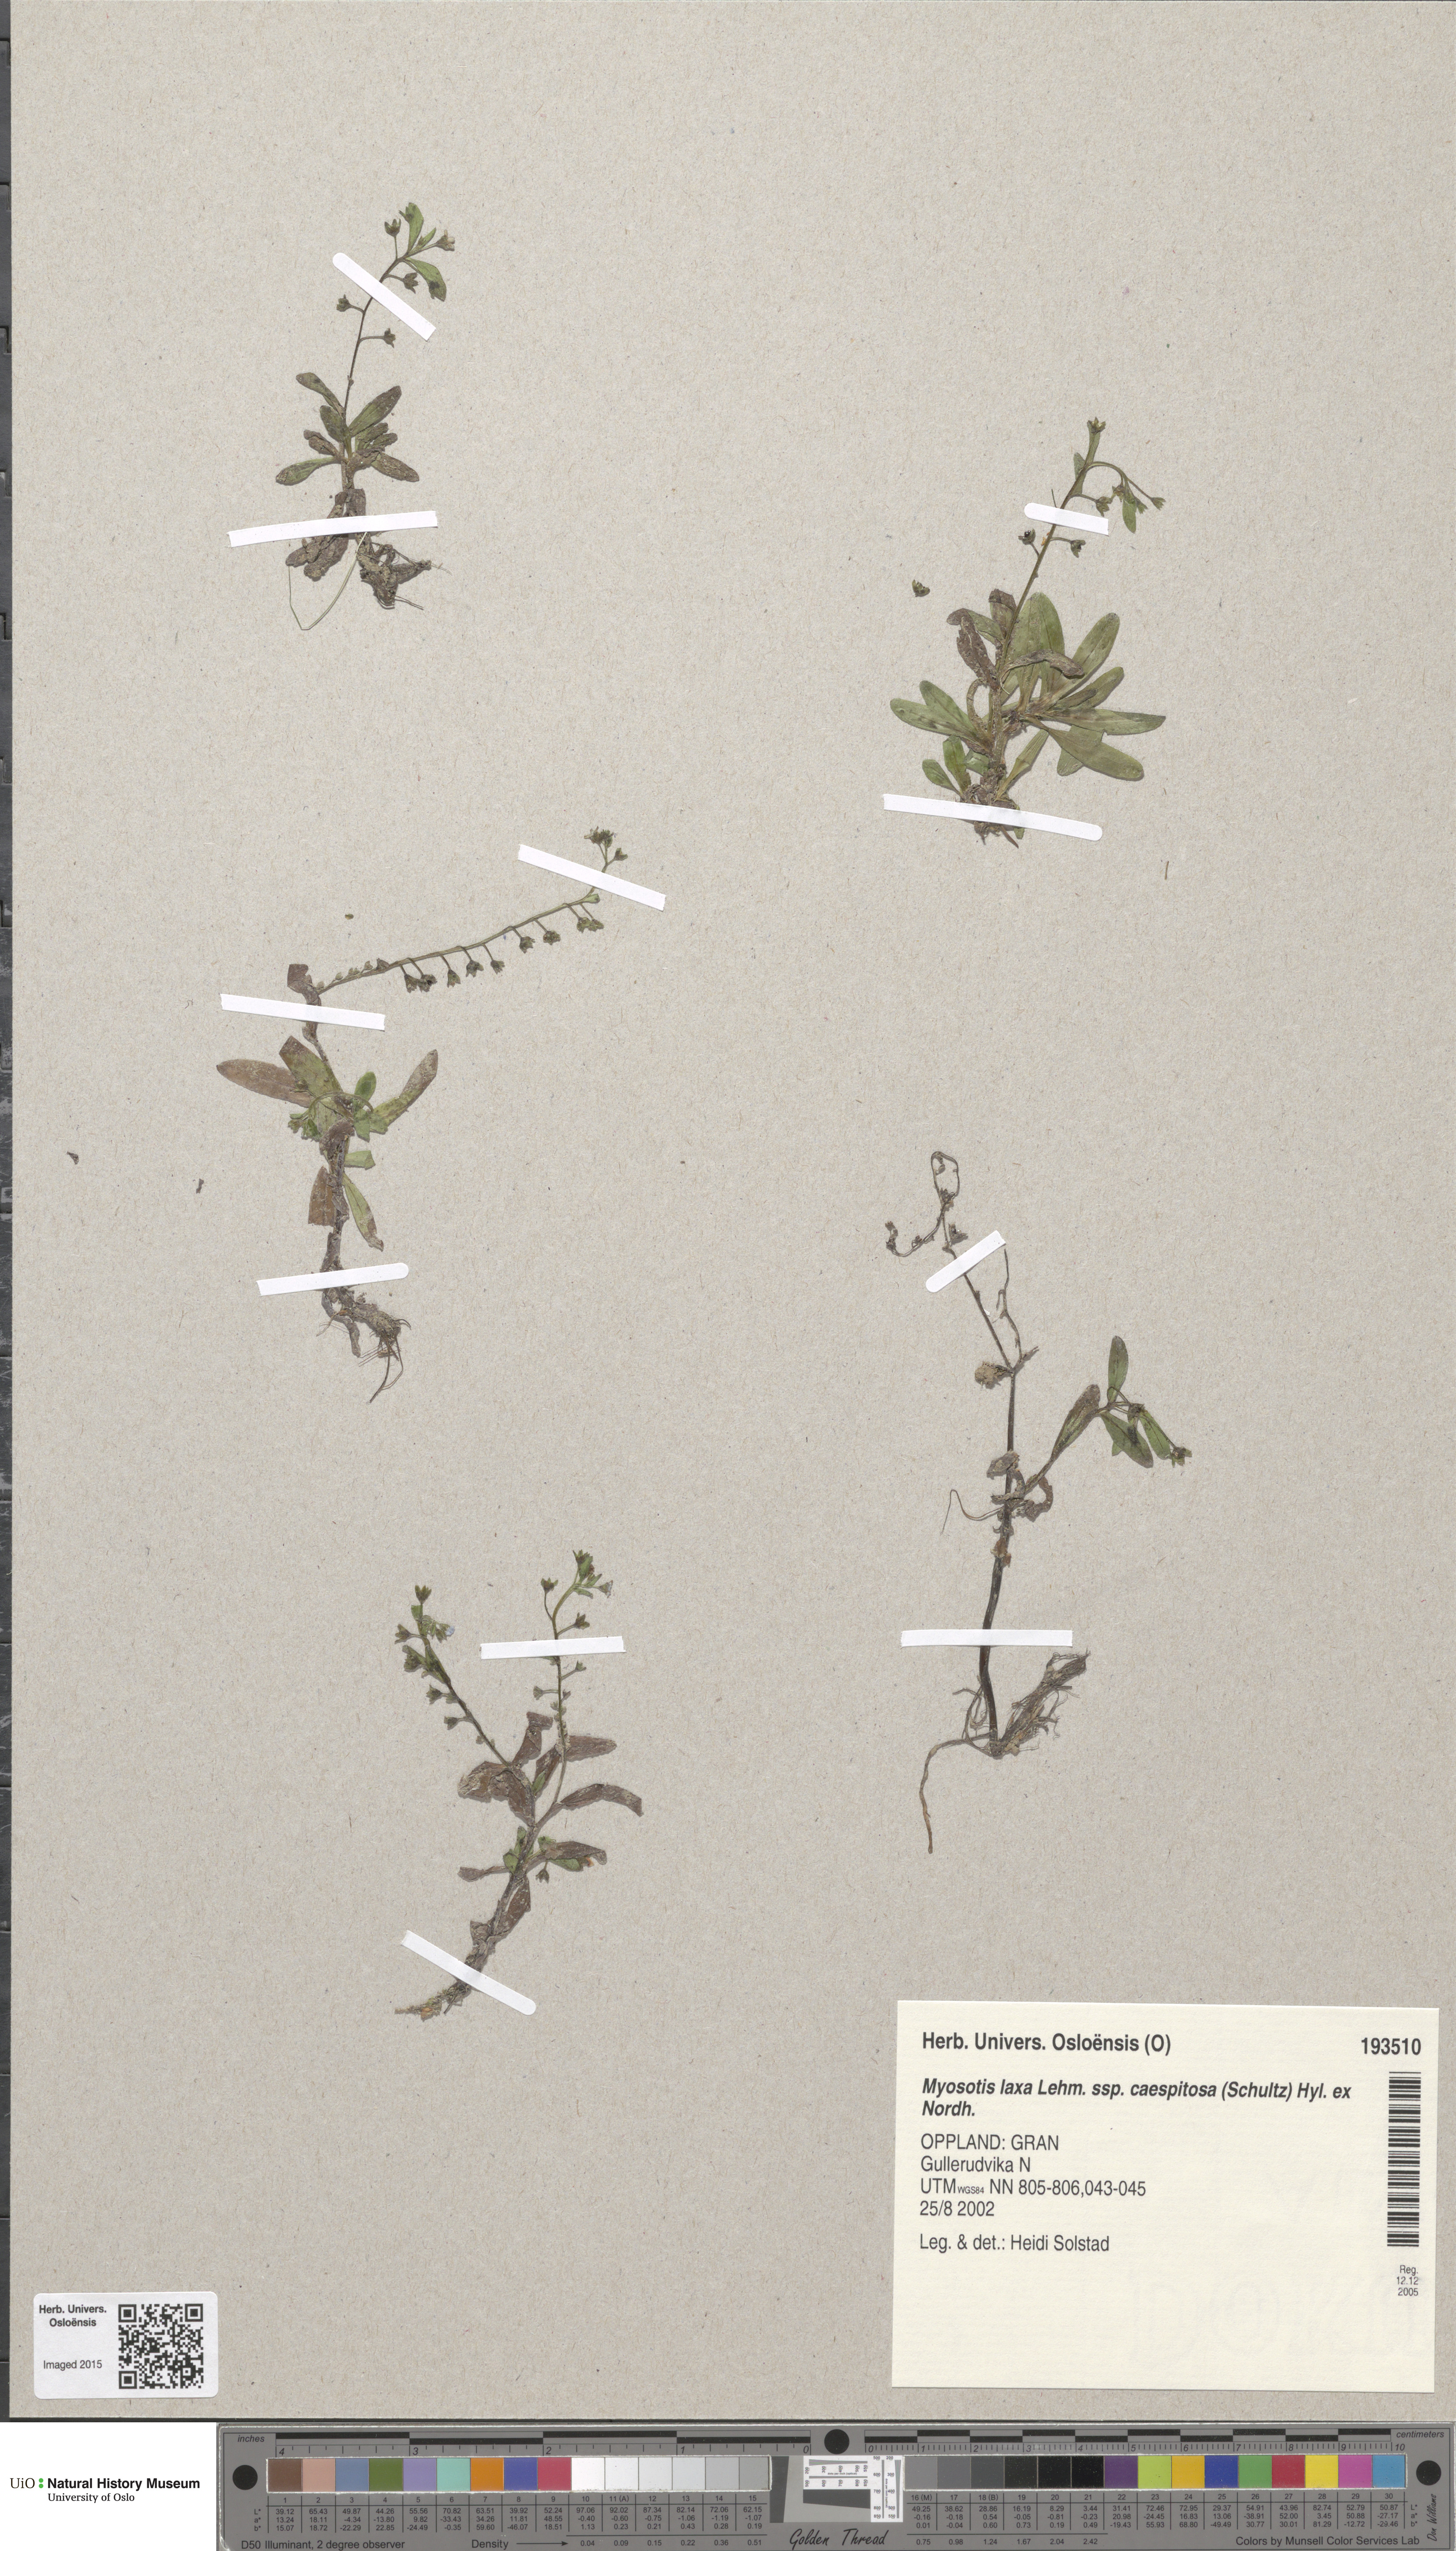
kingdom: Plantae
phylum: Tracheophyta
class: Magnoliopsida
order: Boraginales
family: Boraginaceae
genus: Myosotis
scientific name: Myosotis laxa
